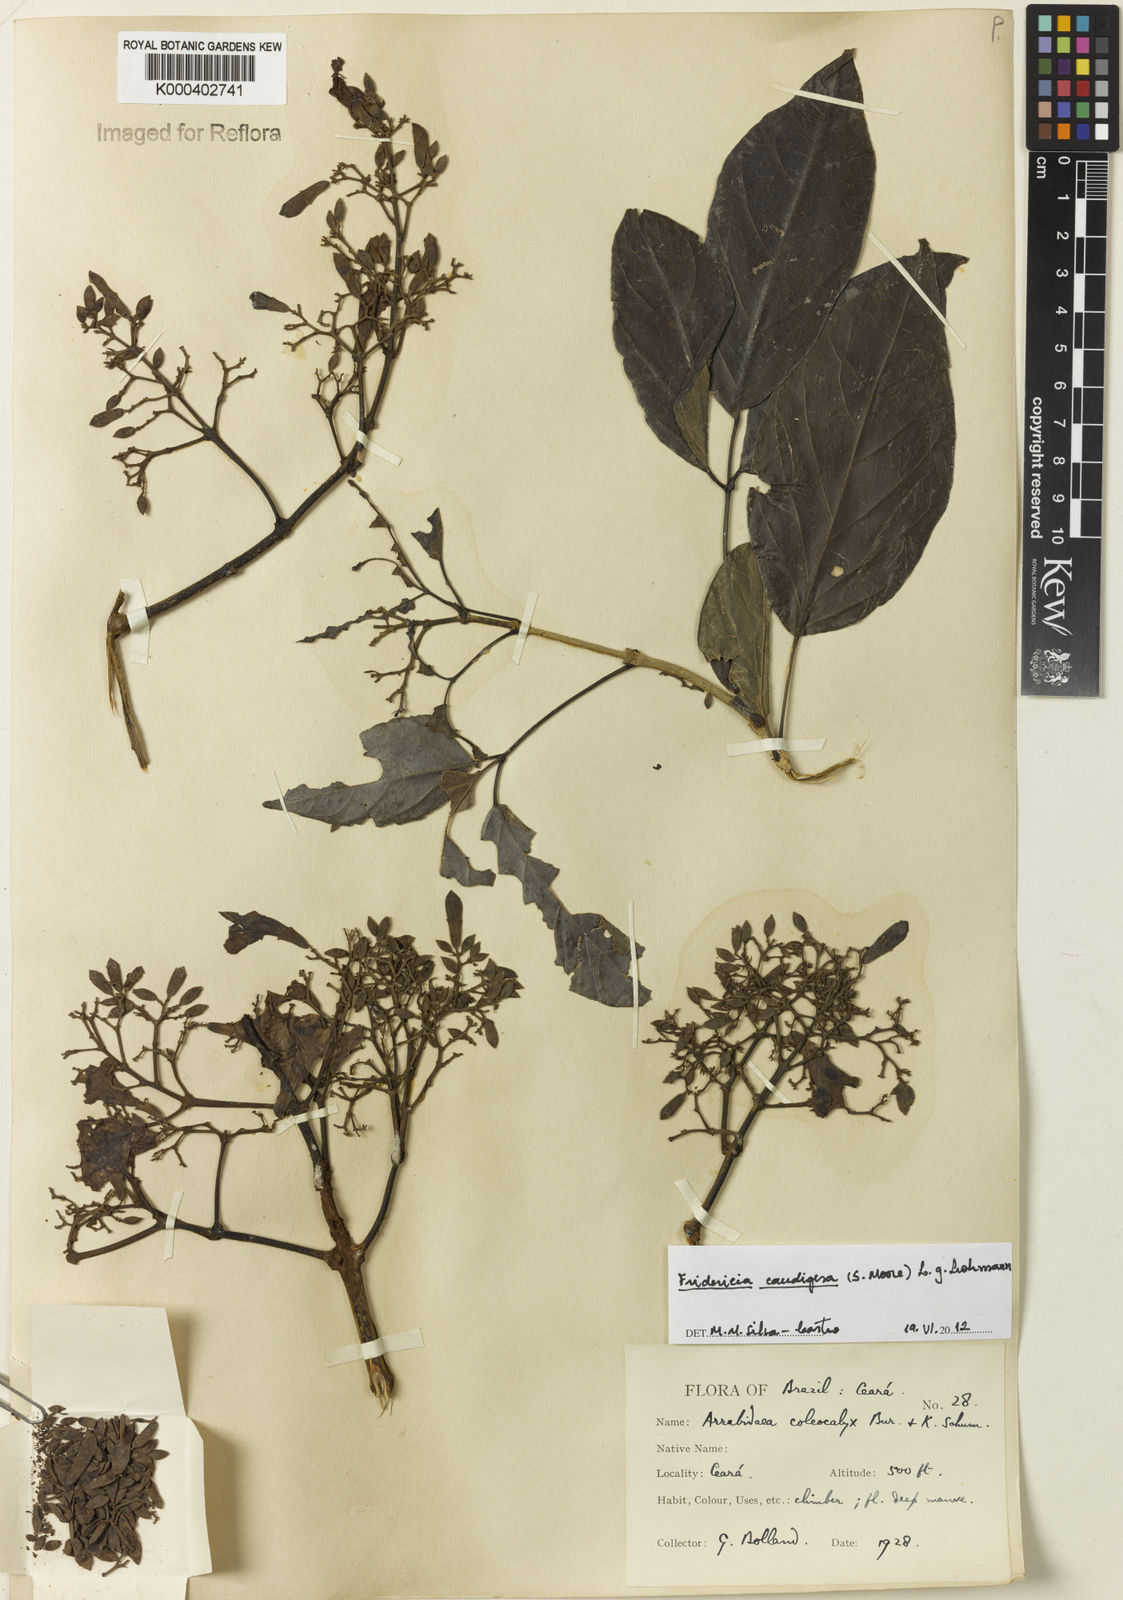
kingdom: Plantae
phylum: Tracheophyta
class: Magnoliopsida
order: Lamiales
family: Bignoniaceae
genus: Fridericia
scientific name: Fridericia caudigera
